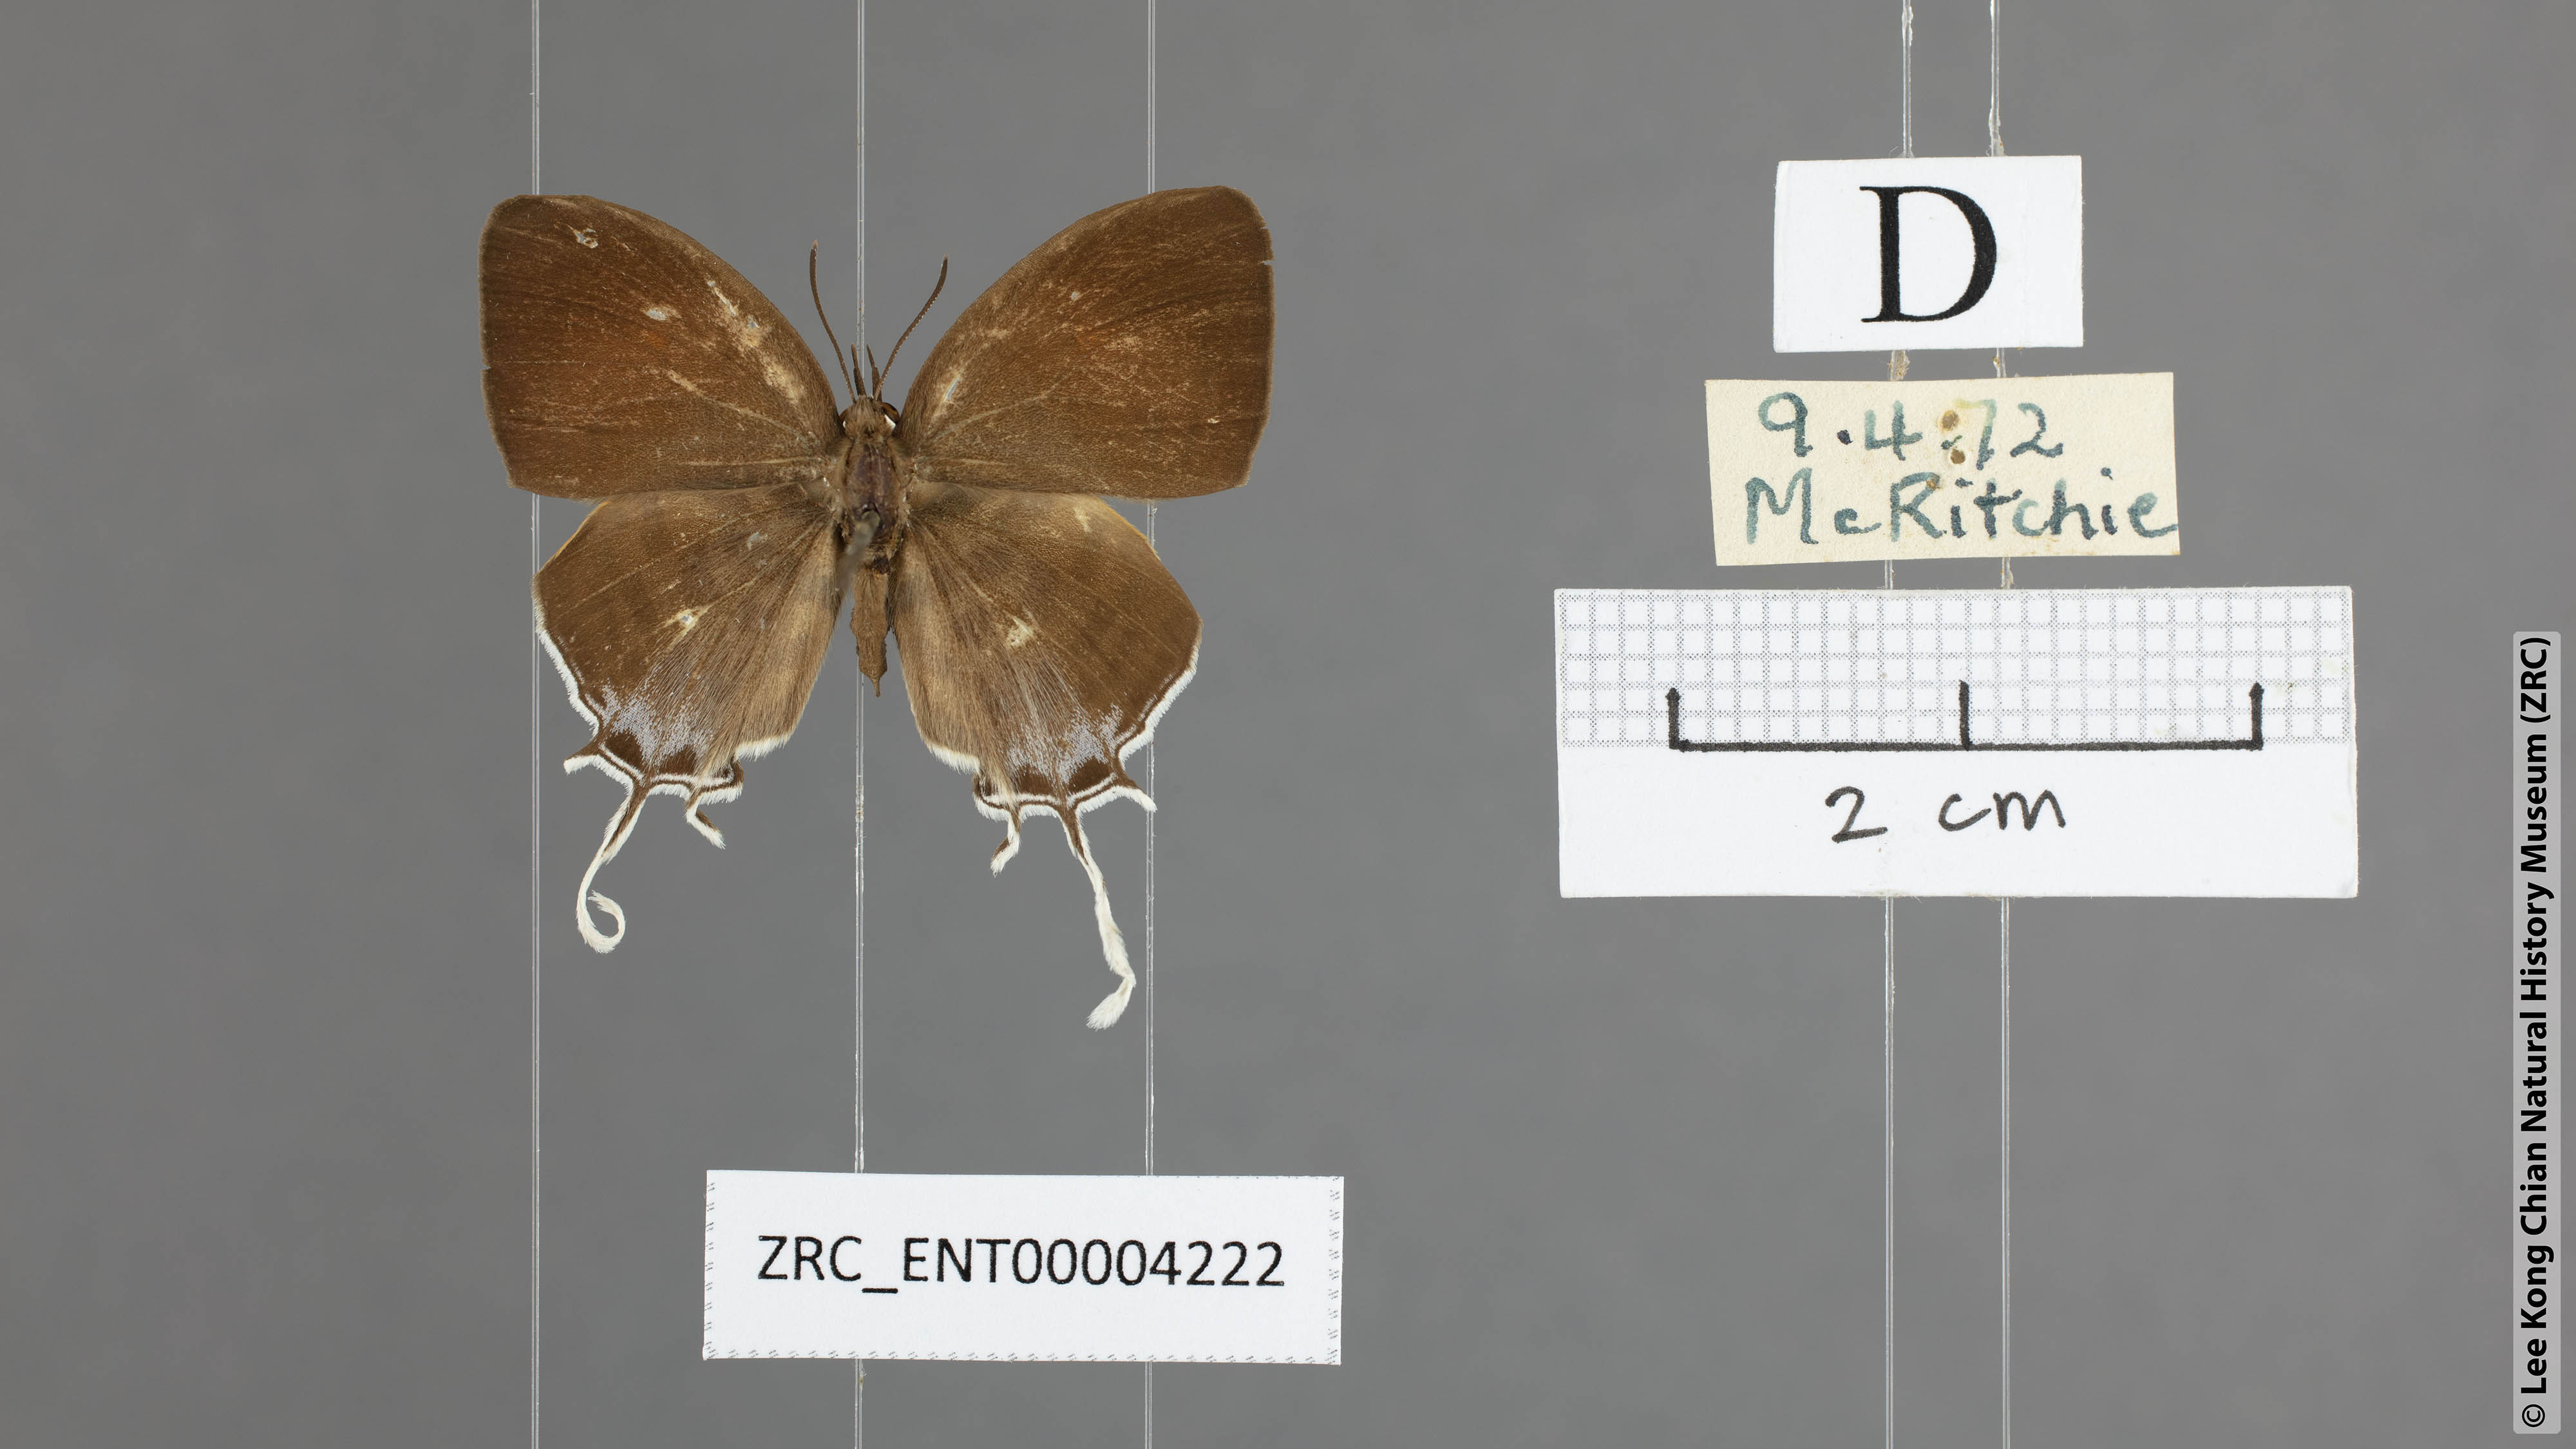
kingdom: Animalia
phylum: Arthropoda
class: Insecta
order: Lepidoptera
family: Lycaenidae
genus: Drupadia
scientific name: Drupadia ravindra
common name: Common posy
